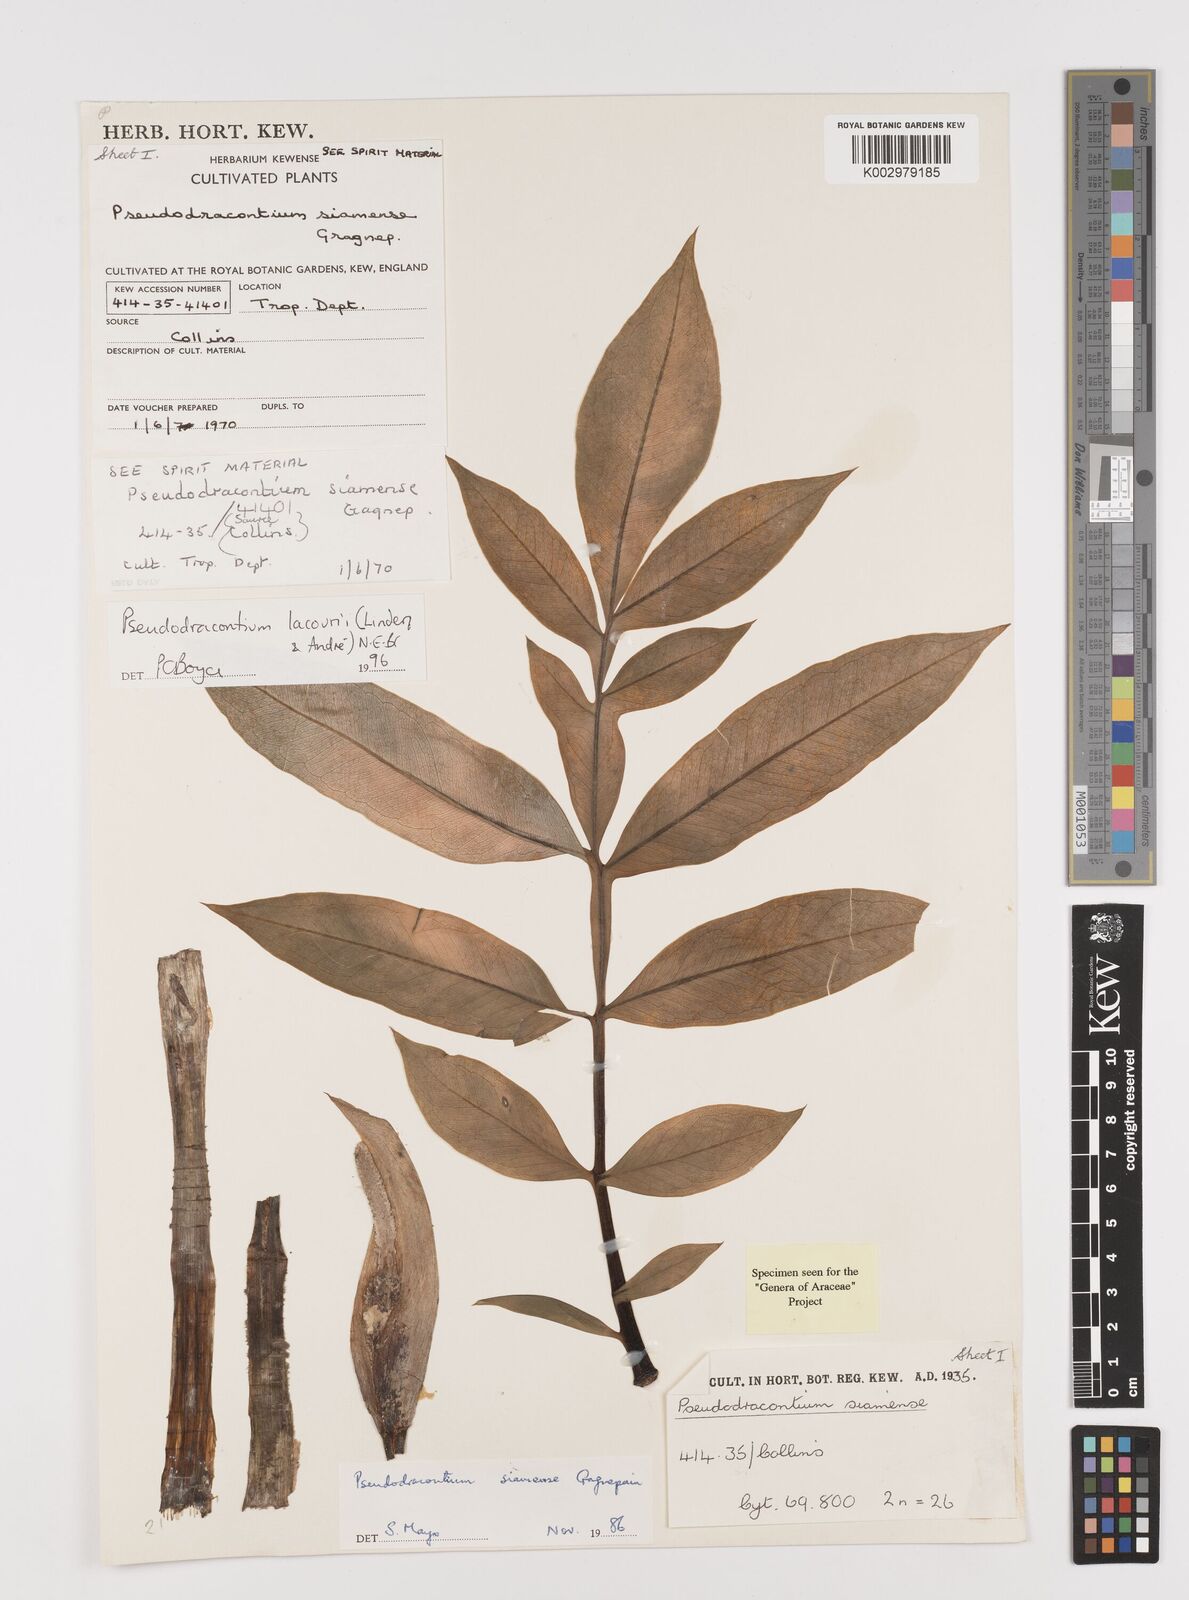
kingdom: Plantae
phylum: Tracheophyta
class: Liliopsida
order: Alismatales
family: Araceae
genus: Amorphophallus
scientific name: Amorphophallus lacourii
